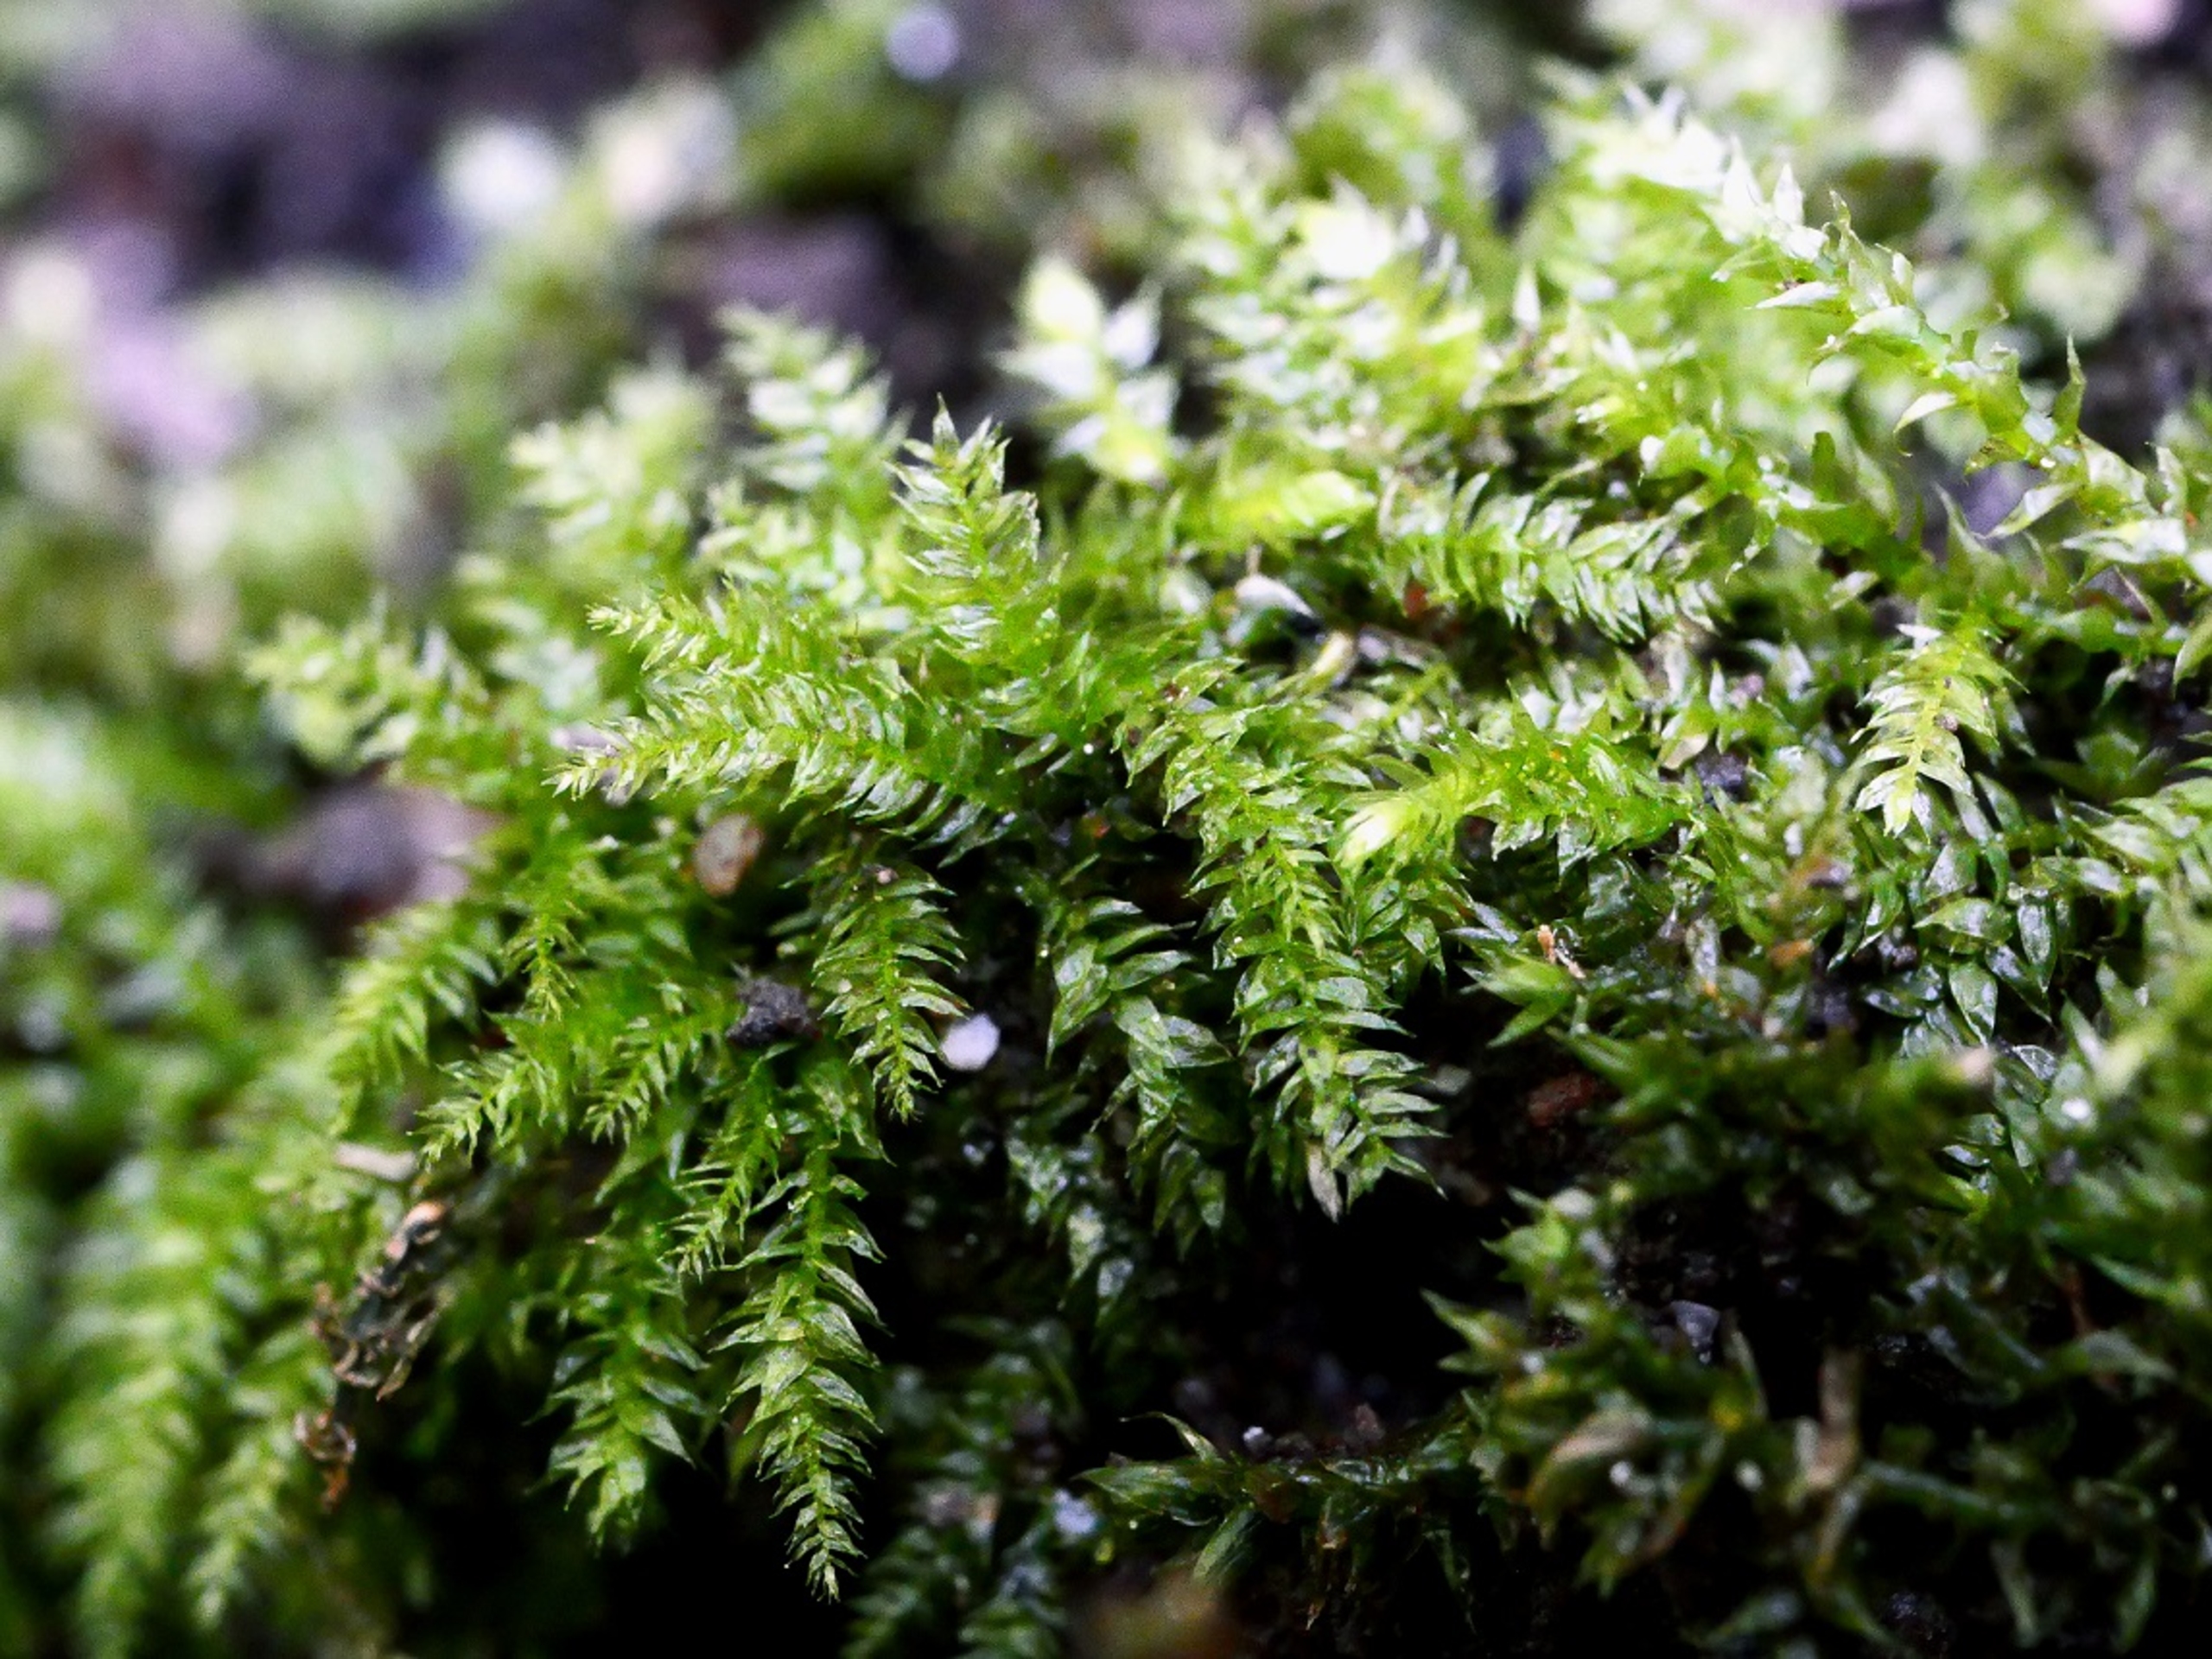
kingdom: Plantae
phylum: Bryophyta
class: Bryopsida
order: Hypnales
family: Brachytheciaceae
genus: Oxyrrhynchium
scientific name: Oxyrrhynchium schleicheri
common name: Vredet vortetand
